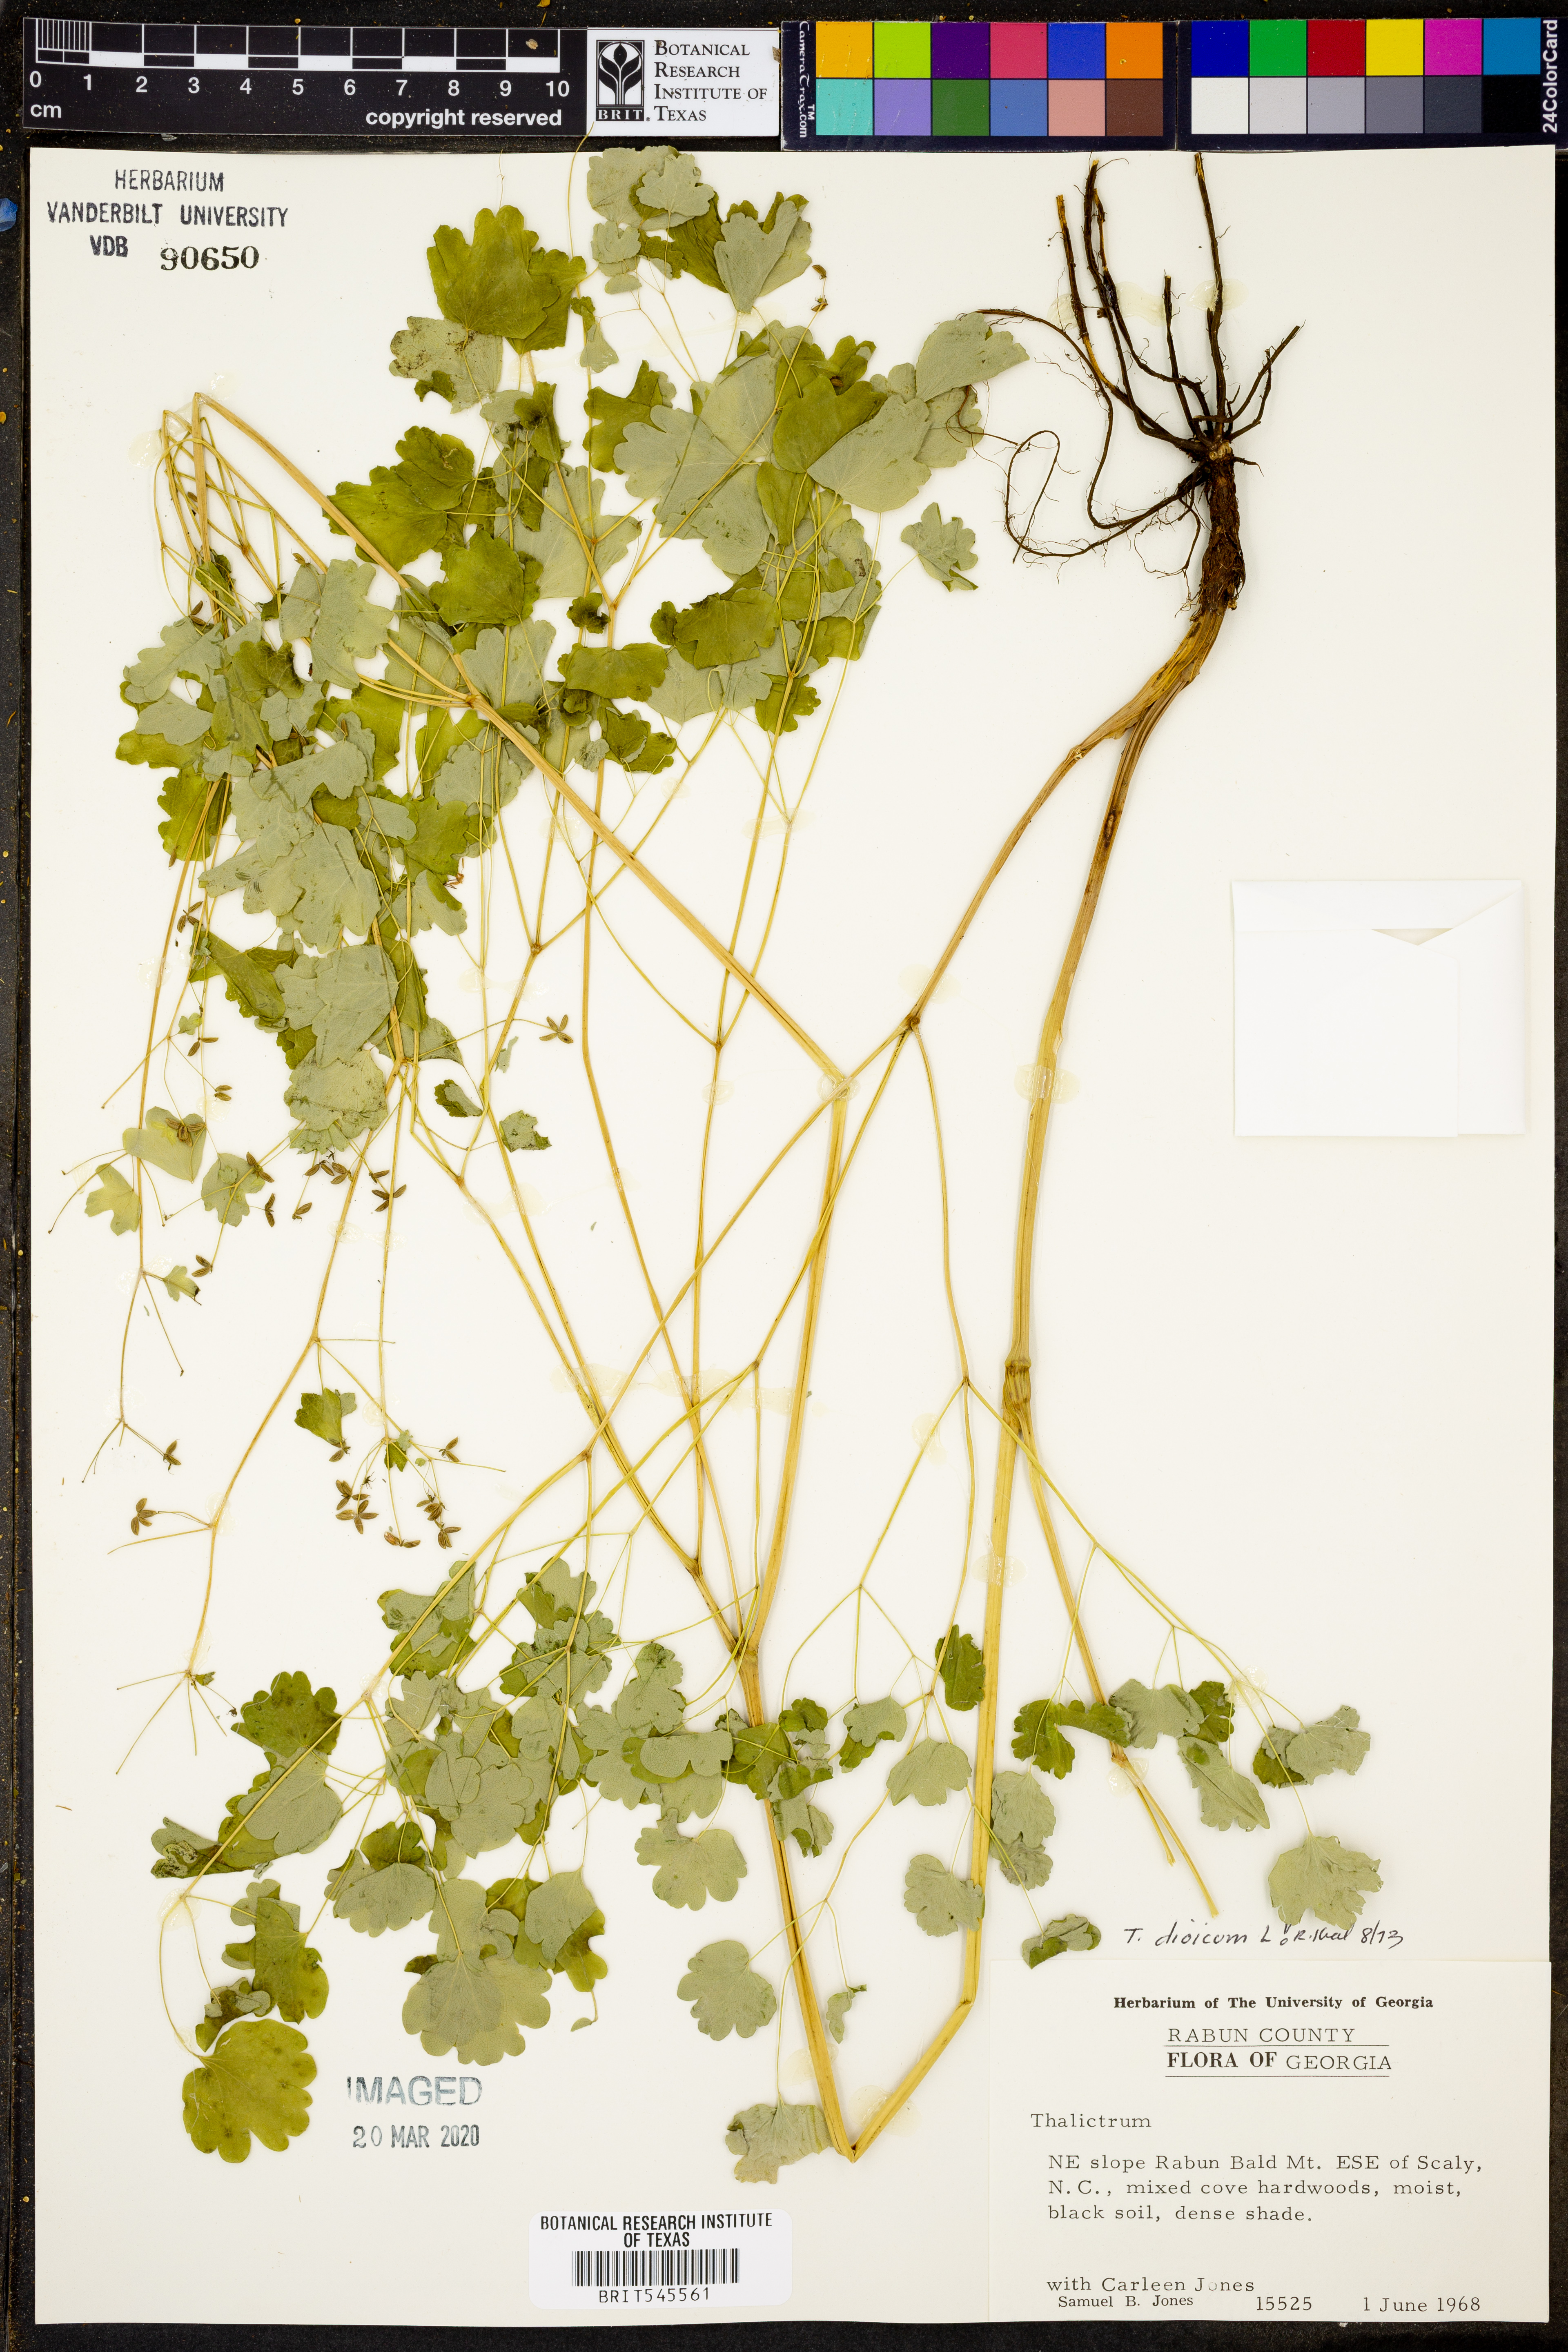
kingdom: Plantae
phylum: Tracheophyta
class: Magnoliopsida
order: Ranunculales
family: Ranunculaceae
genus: Thalictrum
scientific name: Thalictrum dioicum
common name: Early meadow-rue
